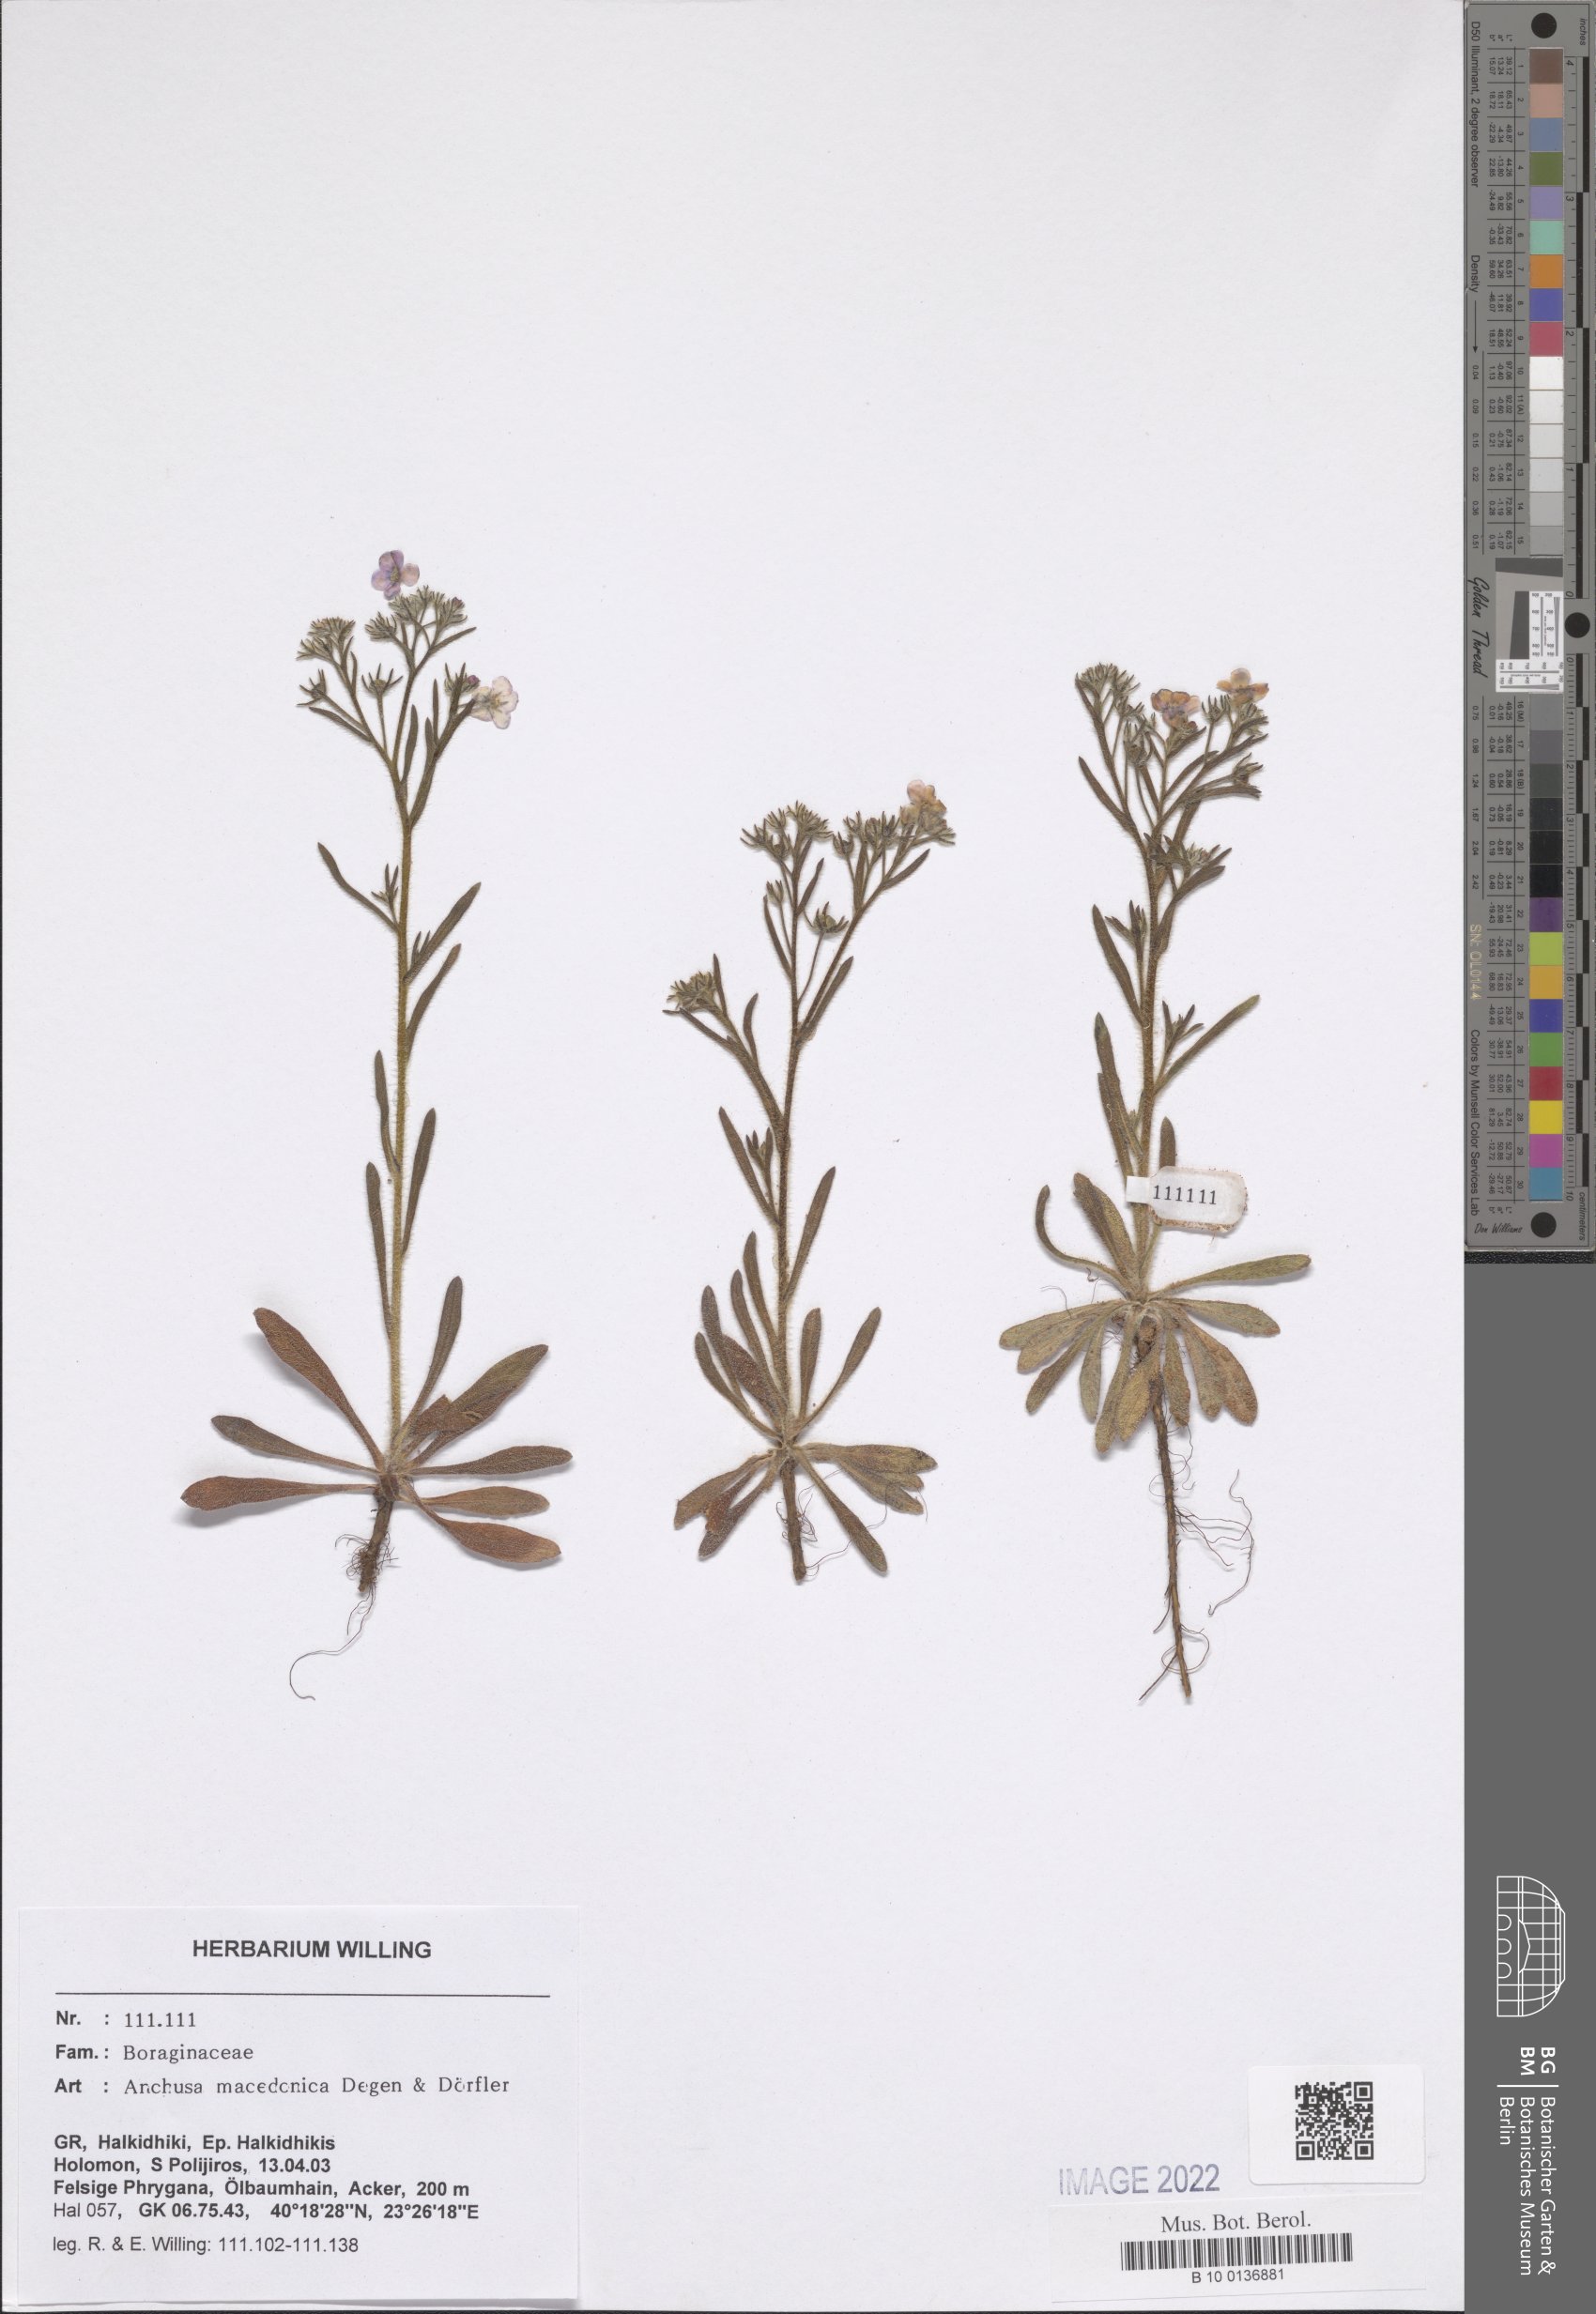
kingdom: Plantae
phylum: Tracheophyta
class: Magnoliopsida
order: Boraginales
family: Boraginaceae
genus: Anchusa
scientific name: Anchusa officinalis
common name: Alkanet
